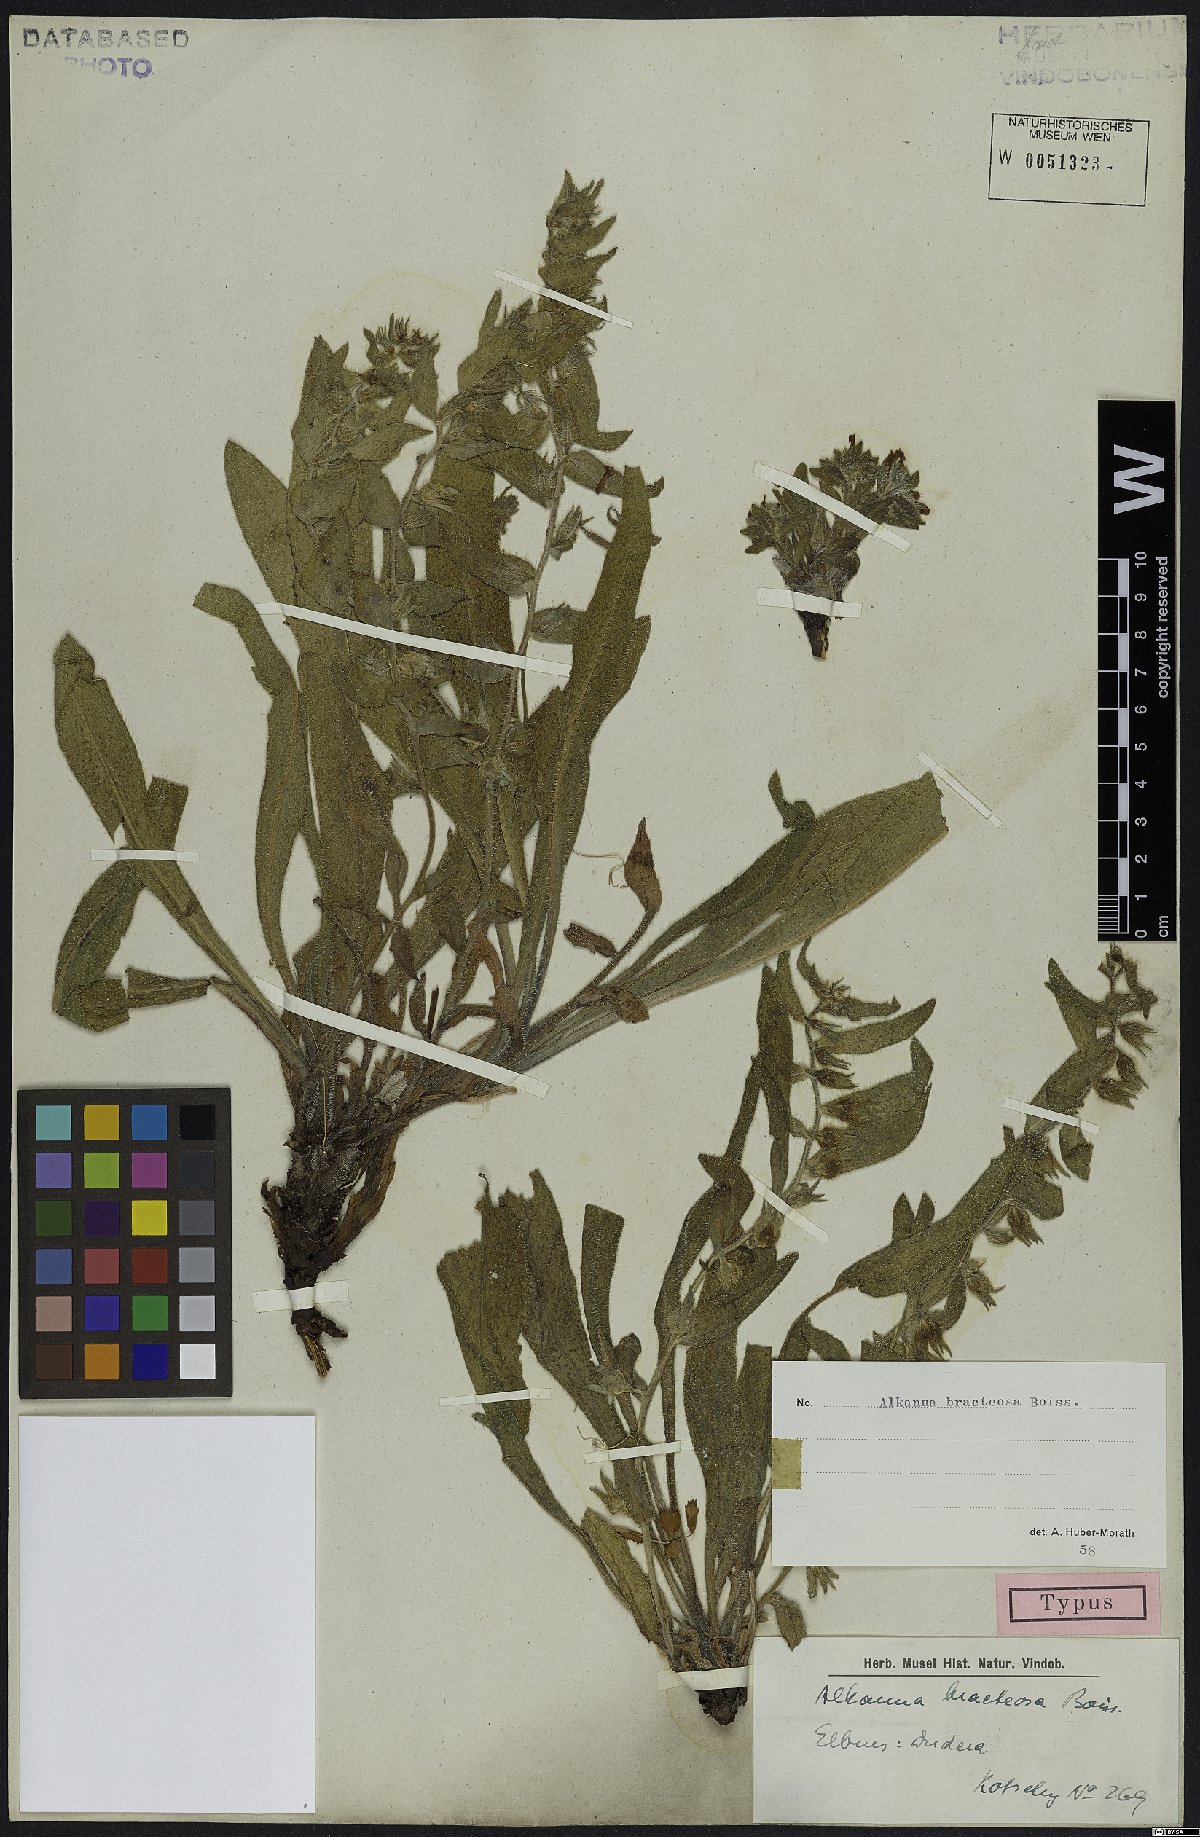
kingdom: Plantae
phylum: Tracheophyta
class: Magnoliopsida
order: Boraginales
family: Boraginaceae
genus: Alkanna
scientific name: Alkanna bracteosa
